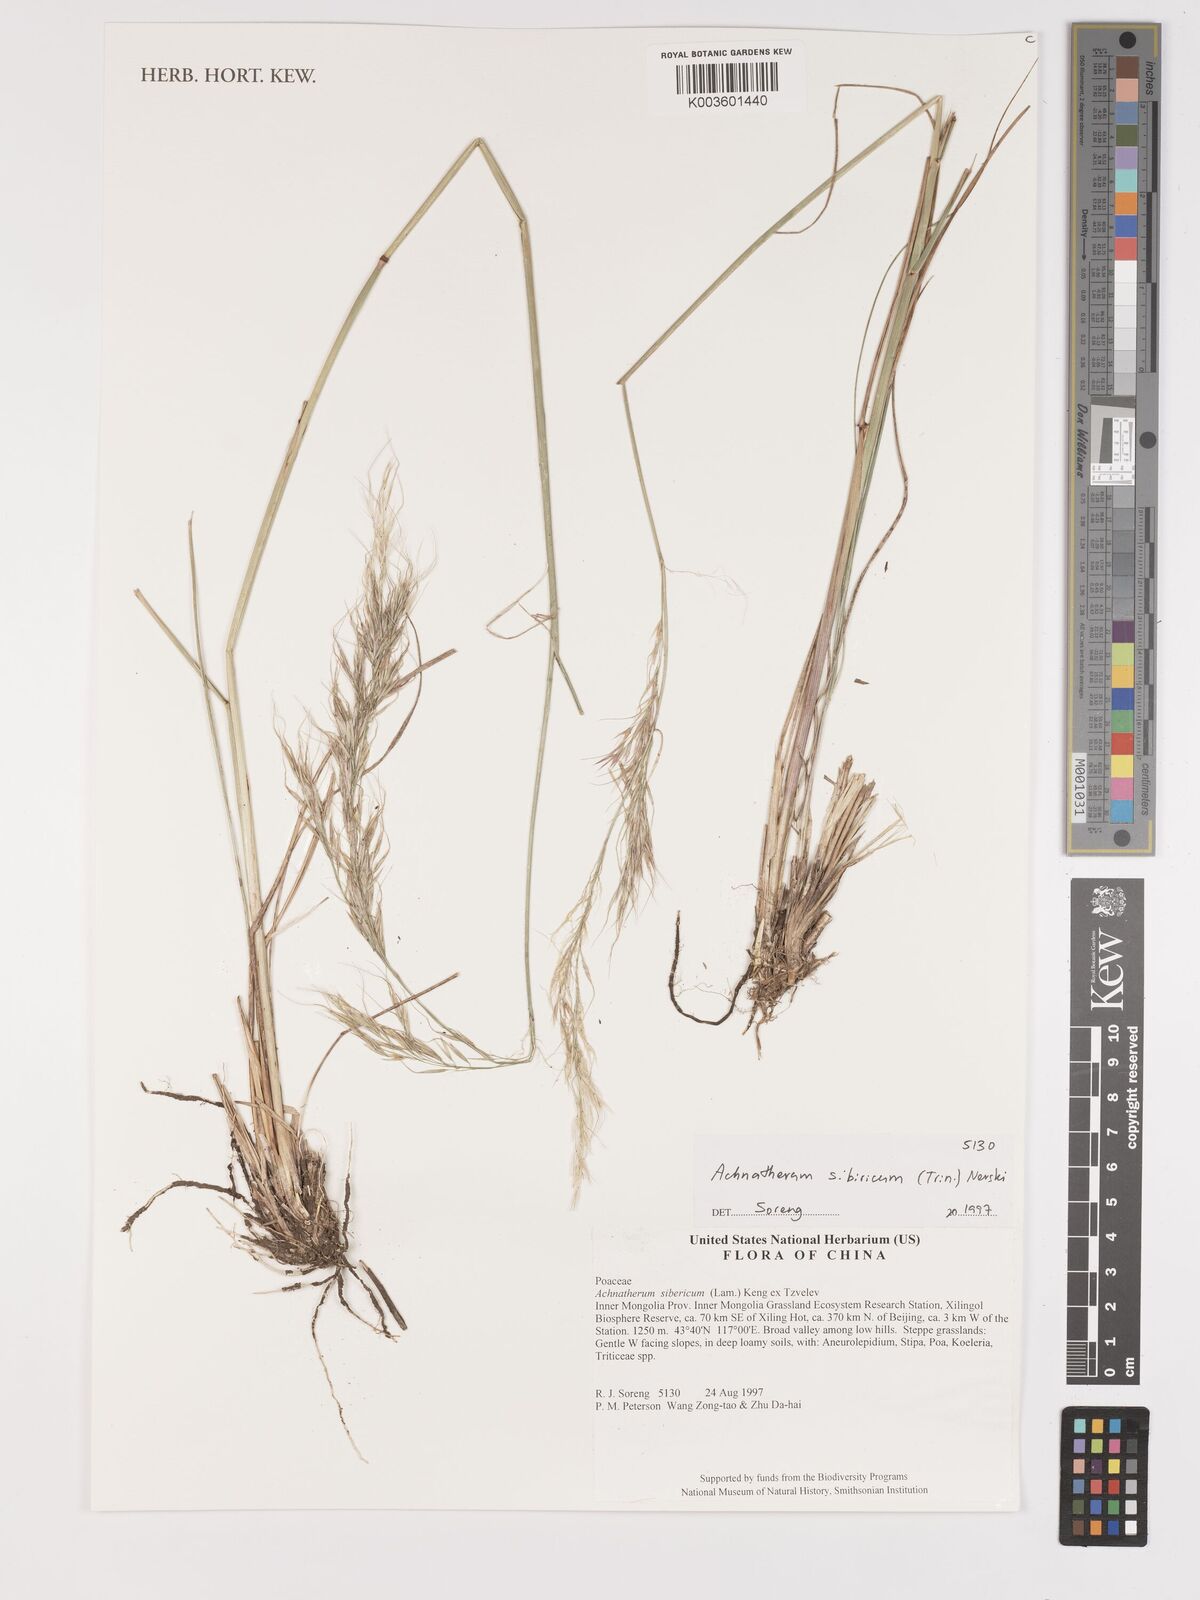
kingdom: Plantae
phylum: Tracheophyta
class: Liliopsida
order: Poales
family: Poaceae
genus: Achnatherum
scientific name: Achnatherum sibiricum
